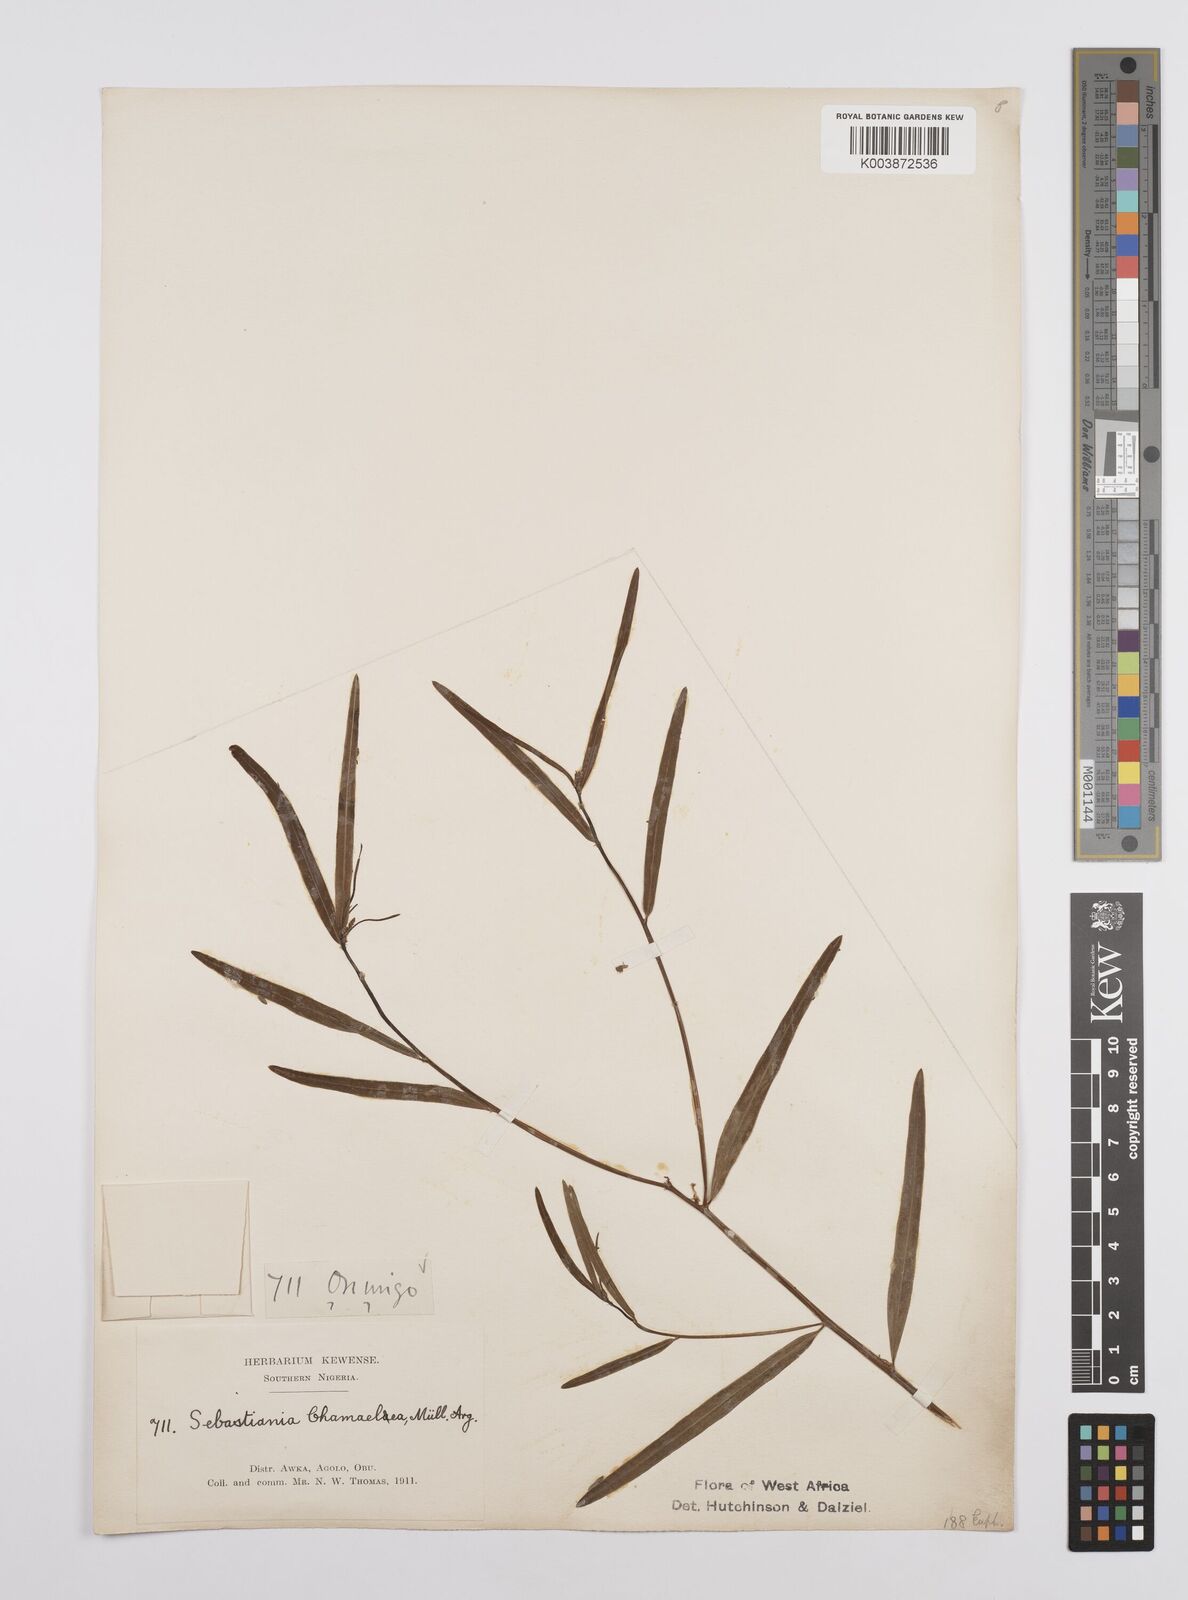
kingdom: Plantae
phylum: Tracheophyta
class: Magnoliopsida
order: Malpighiales
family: Euphorbiaceae
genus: Microstachys
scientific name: Microstachys chamaelea
